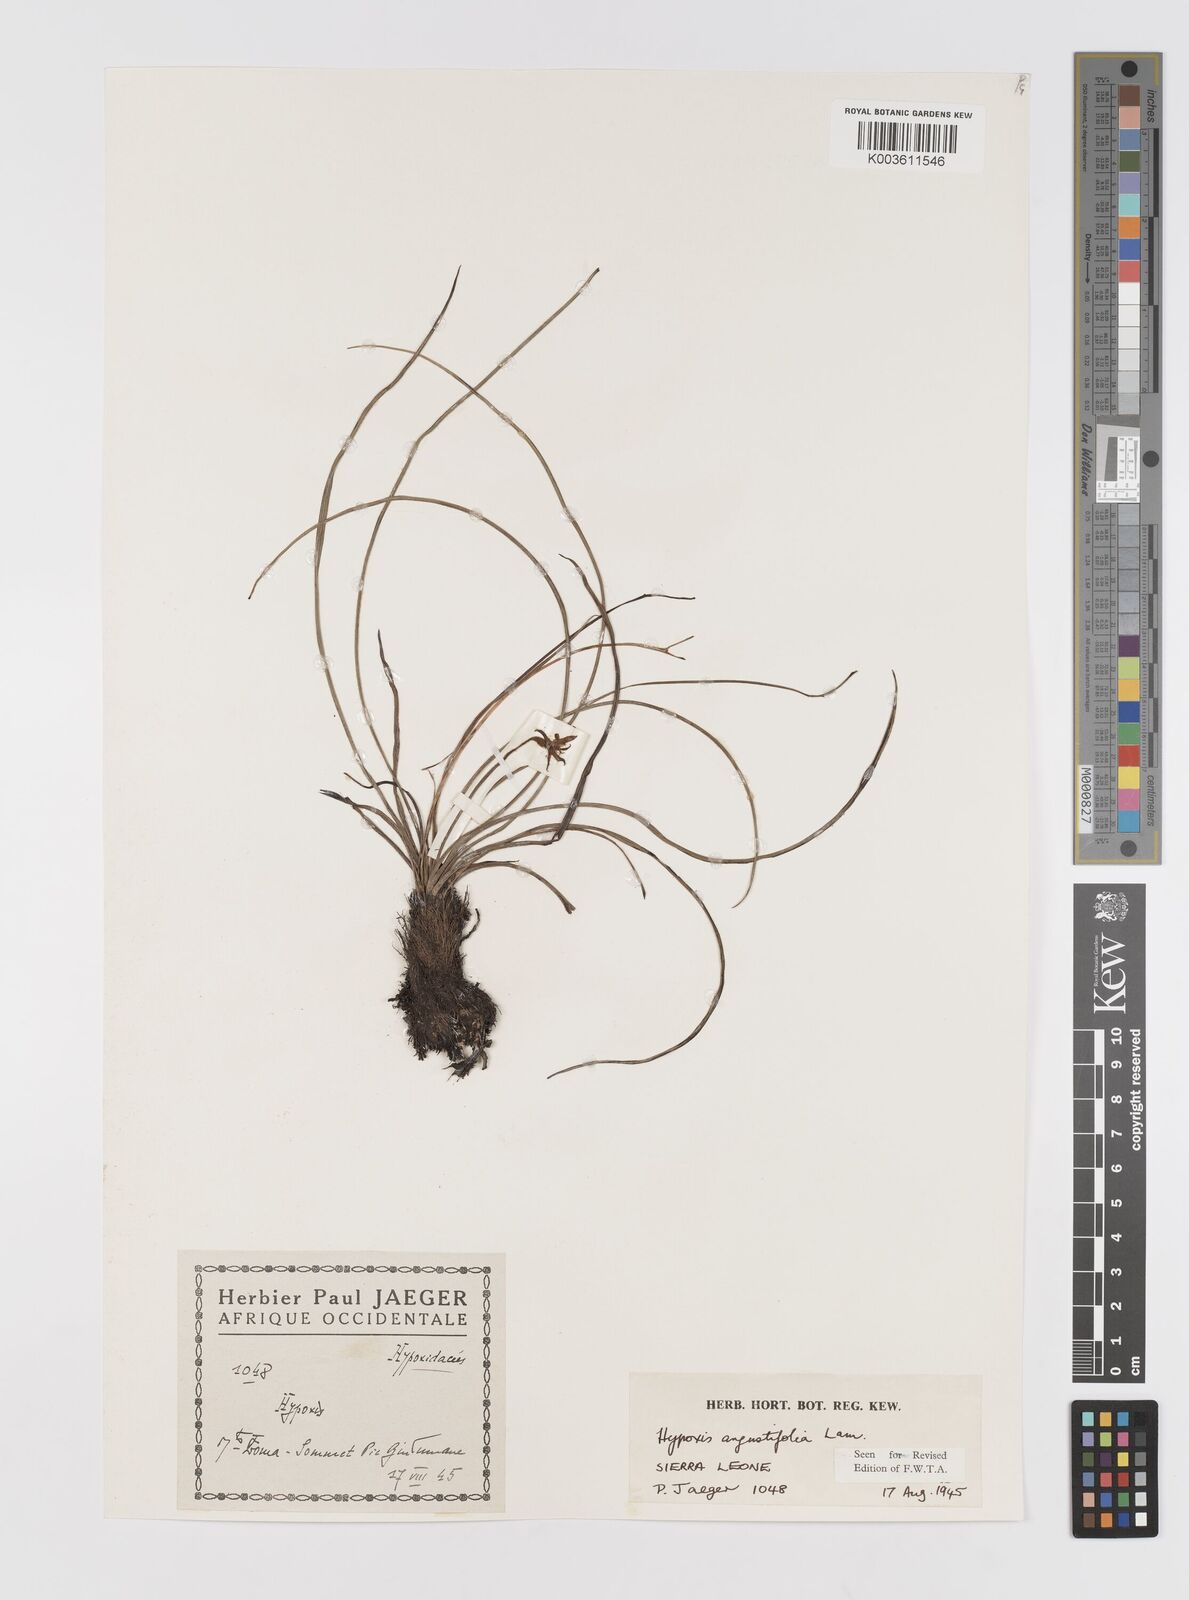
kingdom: Plantae
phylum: Tracheophyta
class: Liliopsida
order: Asparagales
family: Hypoxidaceae
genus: Hypoxis
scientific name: Hypoxis angustifolia
